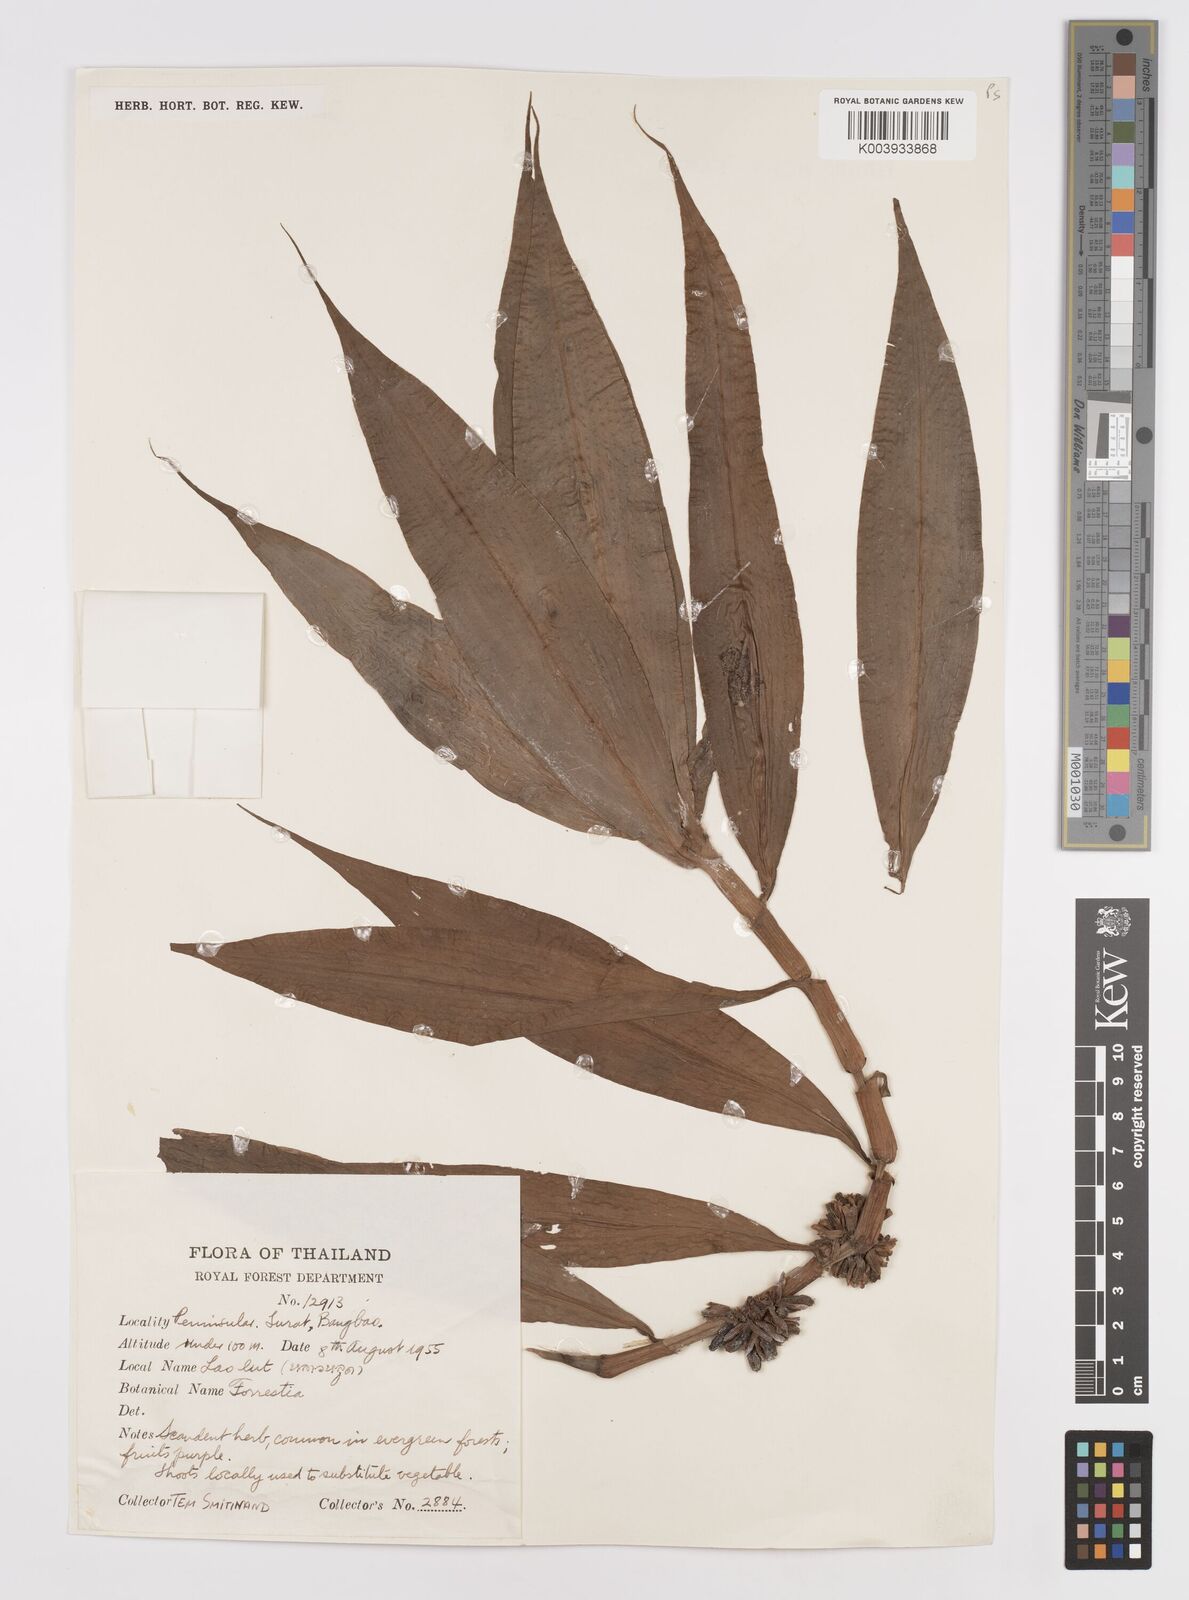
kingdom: Plantae
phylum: Tracheophyta
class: Liliopsida
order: Commelinales
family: Commelinaceae
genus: Amischotolype
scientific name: Amischotolype marginata
